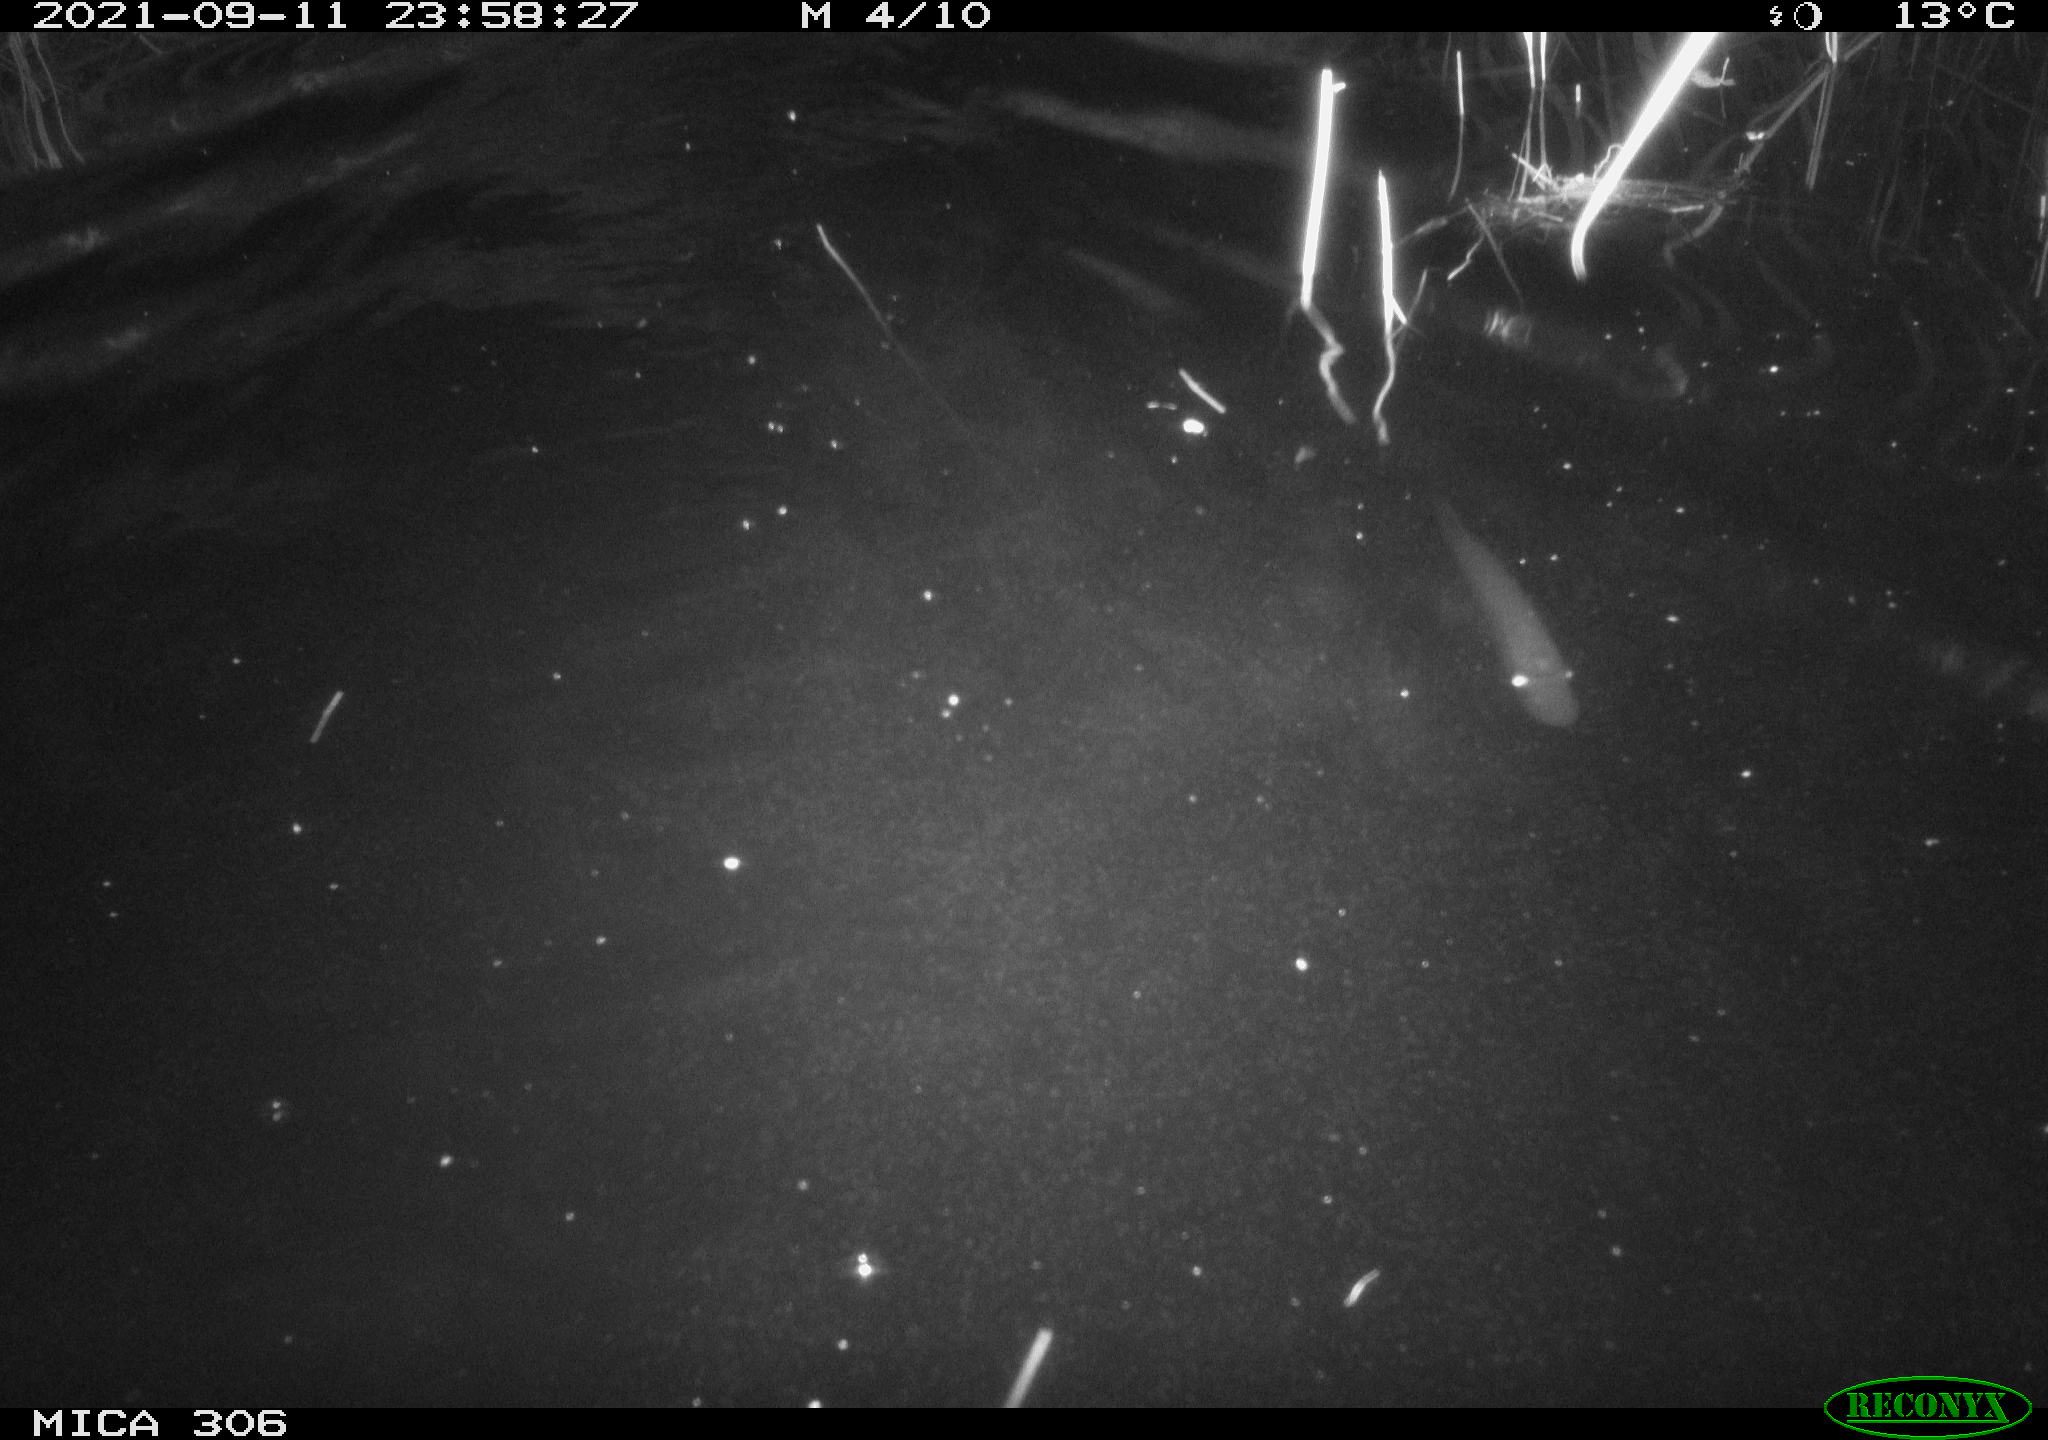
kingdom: Animalia
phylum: Chordata
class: Mammalia
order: Rodentia
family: Cricetidae
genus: Ondatra
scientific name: Ondatra zibethicus
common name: Muskrat
